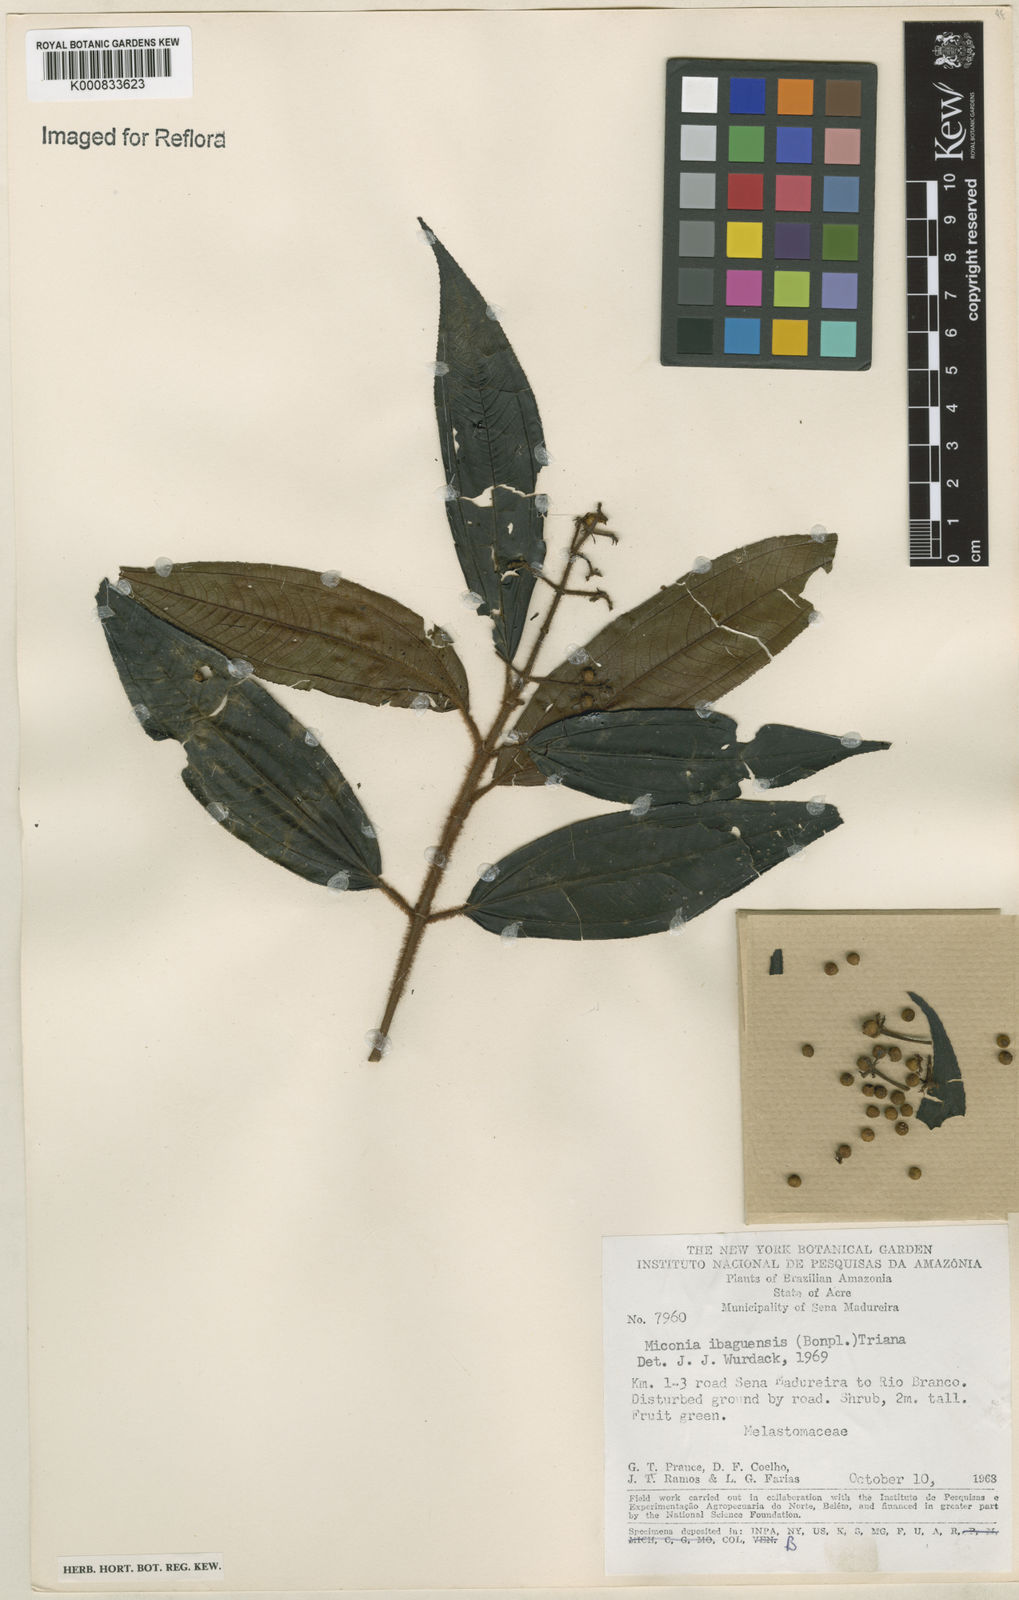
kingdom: Plantae
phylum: Tracheophyta
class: Magnoliopsida
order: Myrtales
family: Melastomataceae
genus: Miconia
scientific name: Miconia ibaguensis
